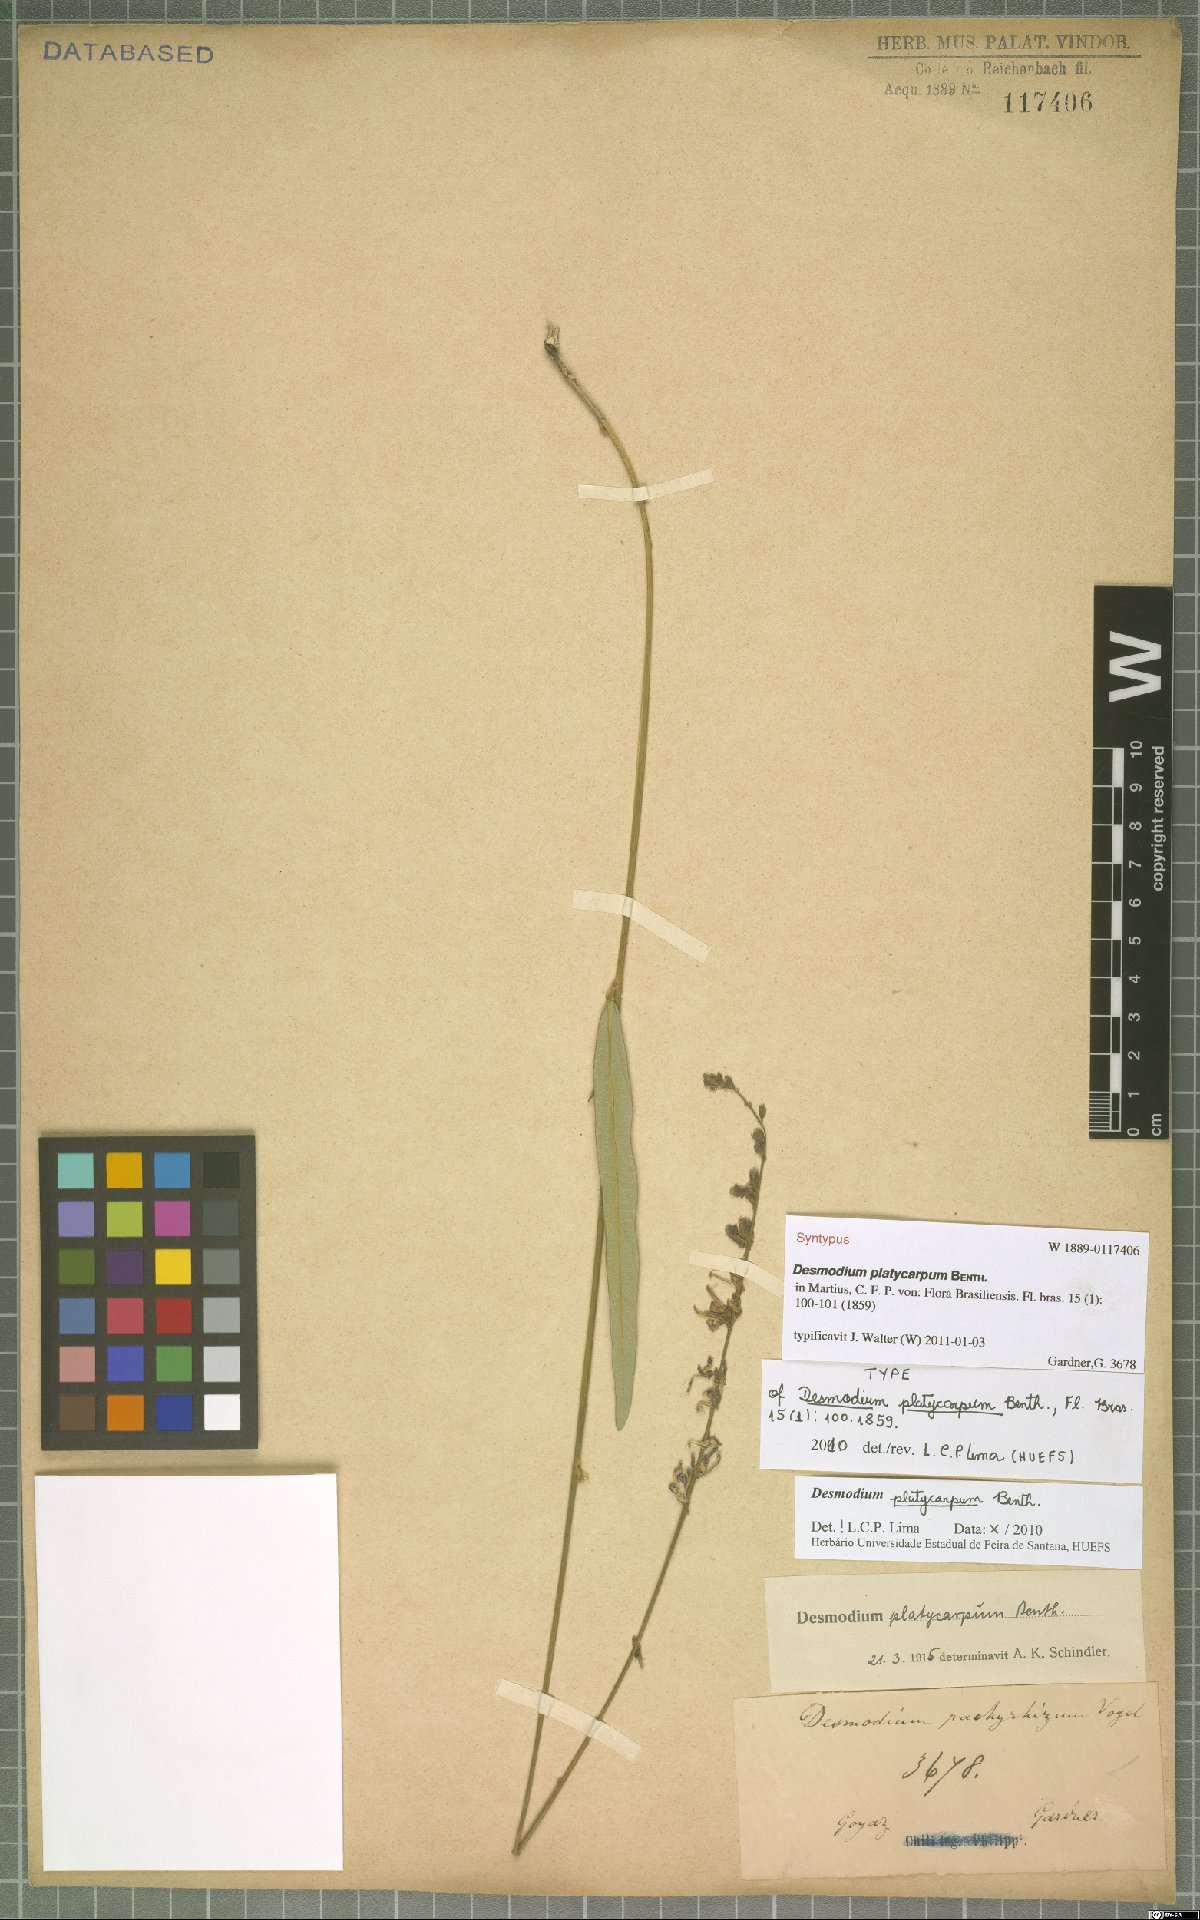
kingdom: Plantae
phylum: Tracheophyta
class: Magnoliopsida
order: Fabales
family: Fabaceae
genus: Desmodium
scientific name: Desmodium platycarpum
